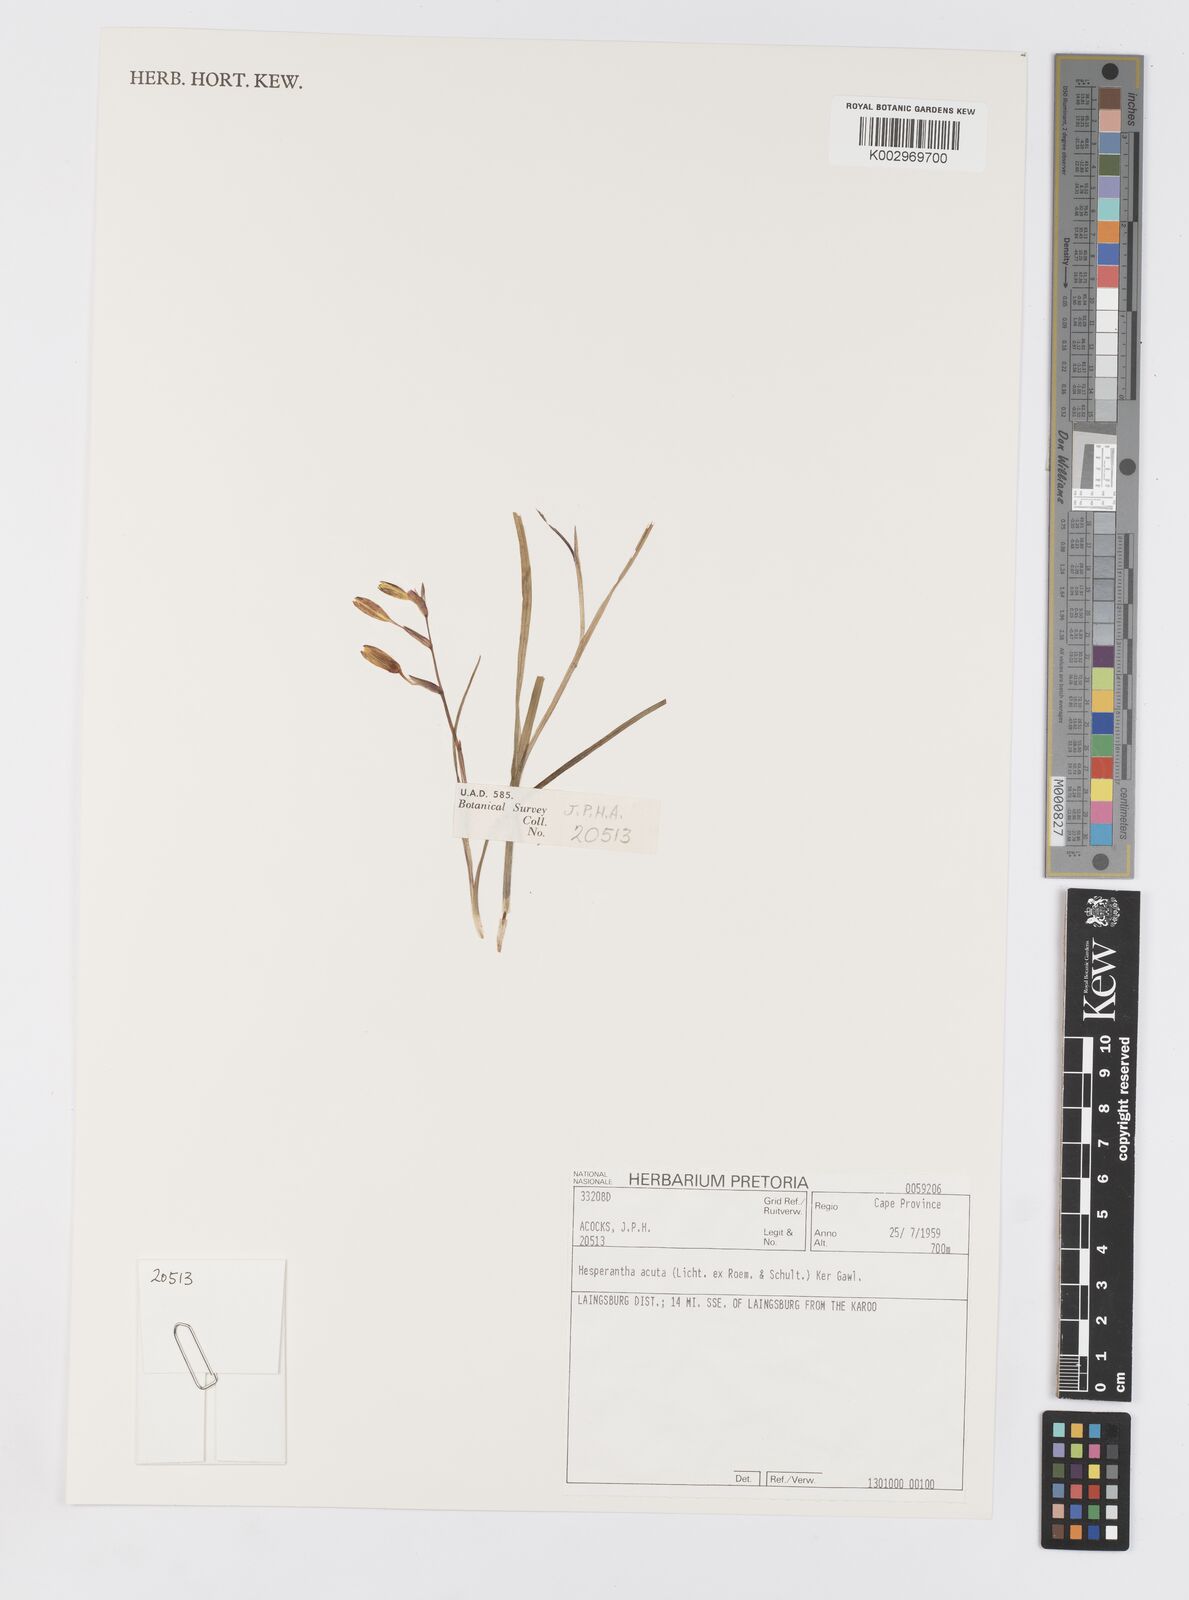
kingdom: Plantae
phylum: Tracheophyta
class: Liliopsida
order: Asparagales
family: Iridaceae
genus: Hesperantha
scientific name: Hesperantha acuta
